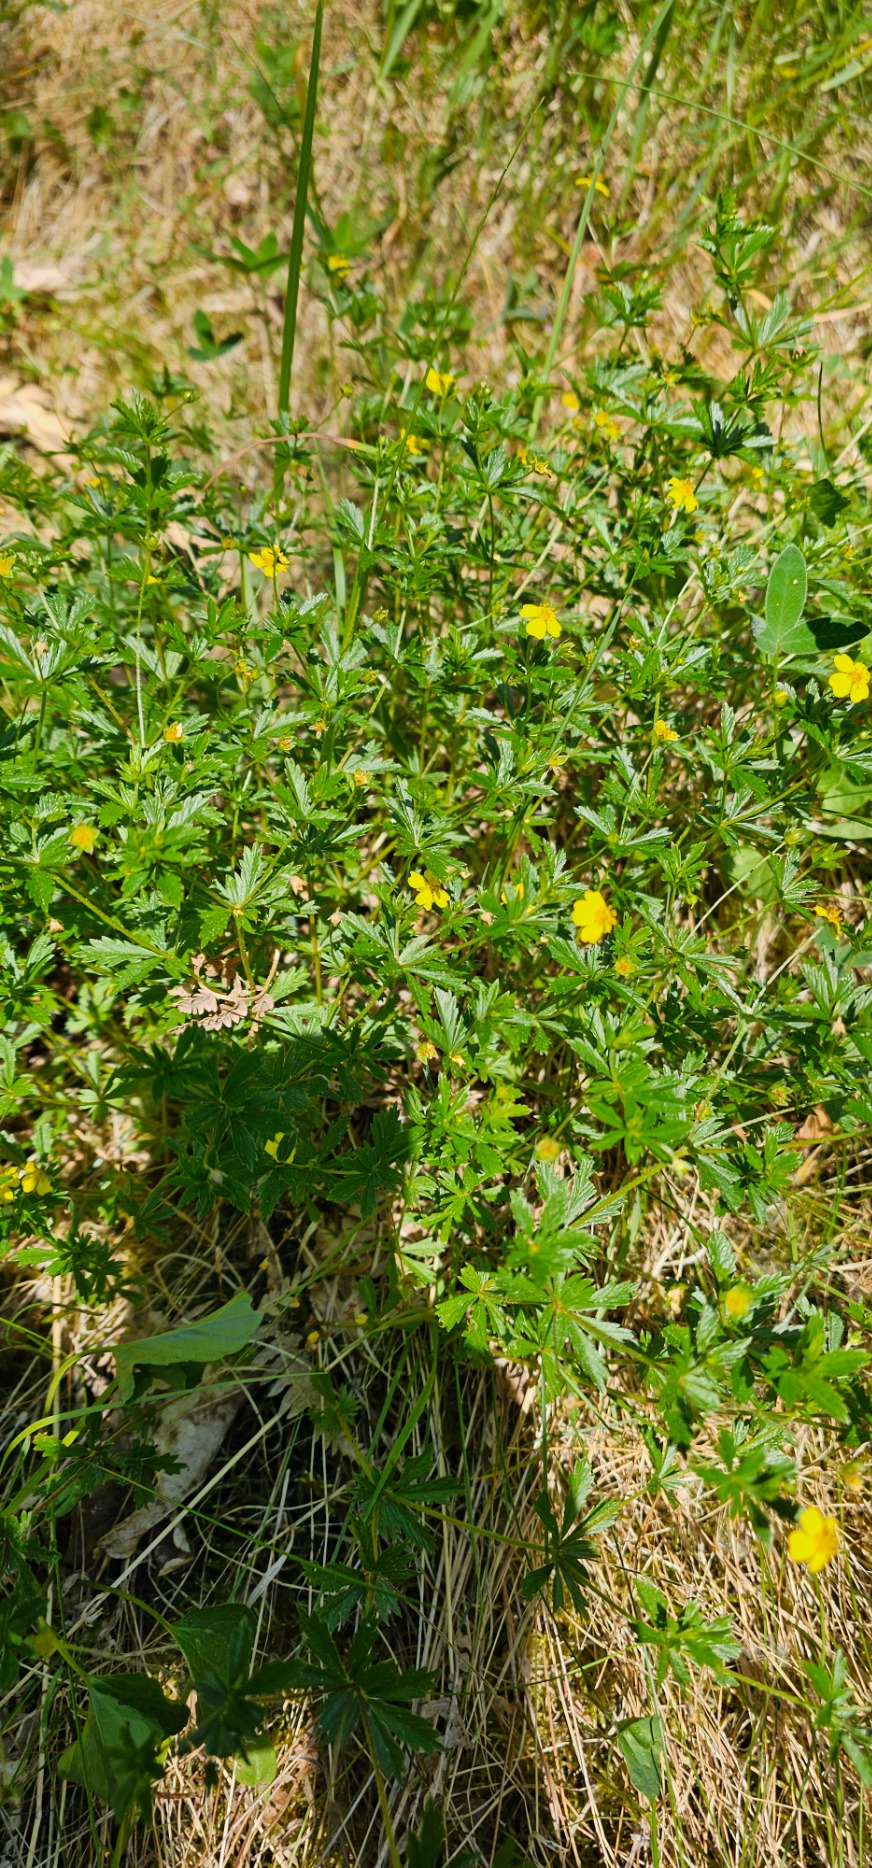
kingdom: Plantae
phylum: Tracheophyta
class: Magnoliopsida
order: Rosales
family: Rosaceae
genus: Potentilla
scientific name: Potentilla erecta
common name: Tormentil
